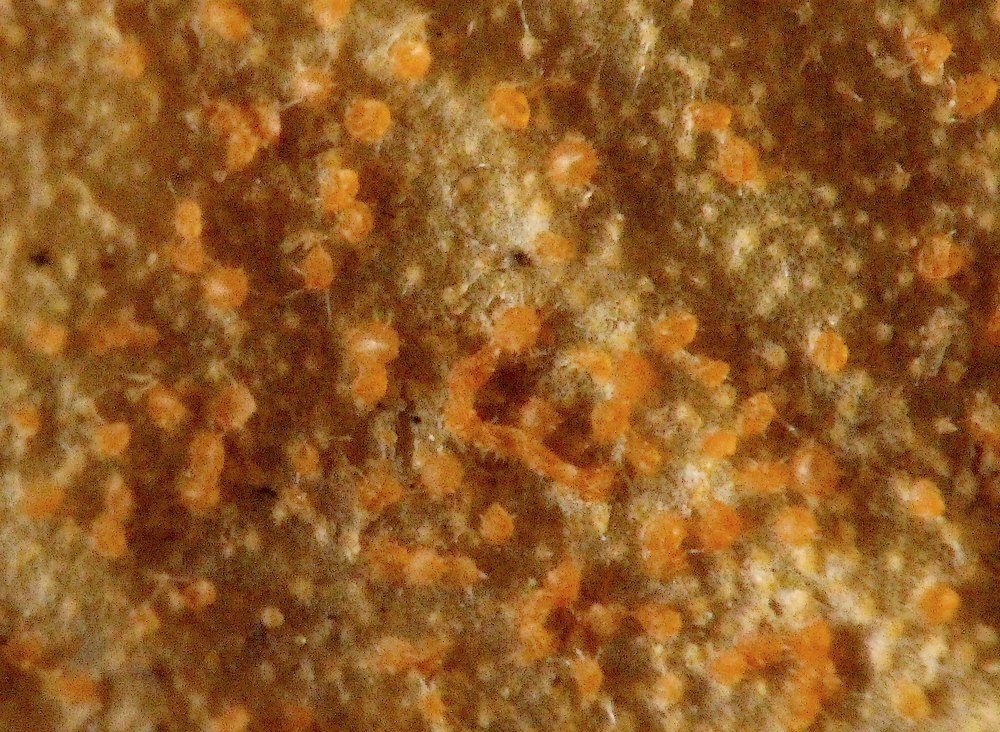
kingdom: Fungi
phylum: Ascomycota
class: Sordariomycetes
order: Hypocreales
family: Nectriaceae
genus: Pseudonectria
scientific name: Pseudonectria buxi
